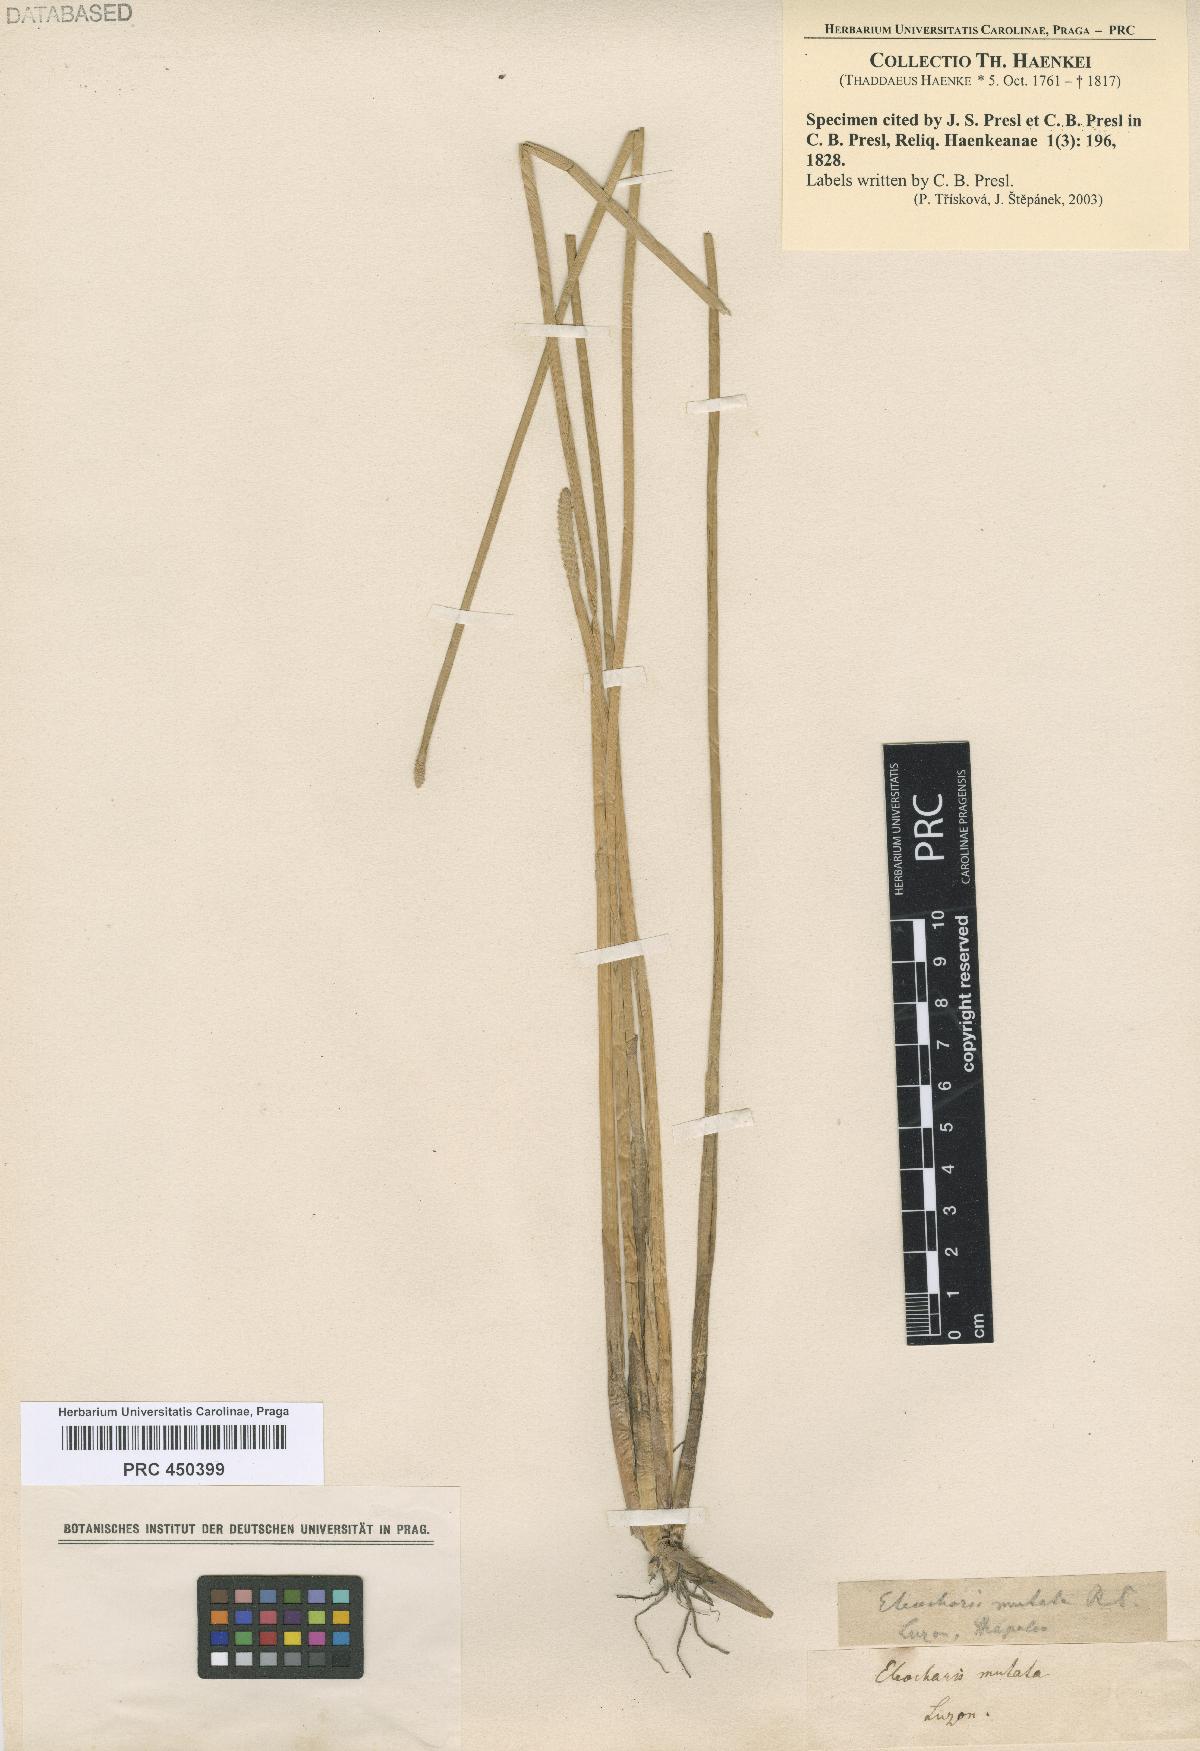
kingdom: Plantae
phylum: Tracheophyta
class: Liliopsida
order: Poales
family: Cyperaceae
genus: Eleocharis
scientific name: Eleocharis
